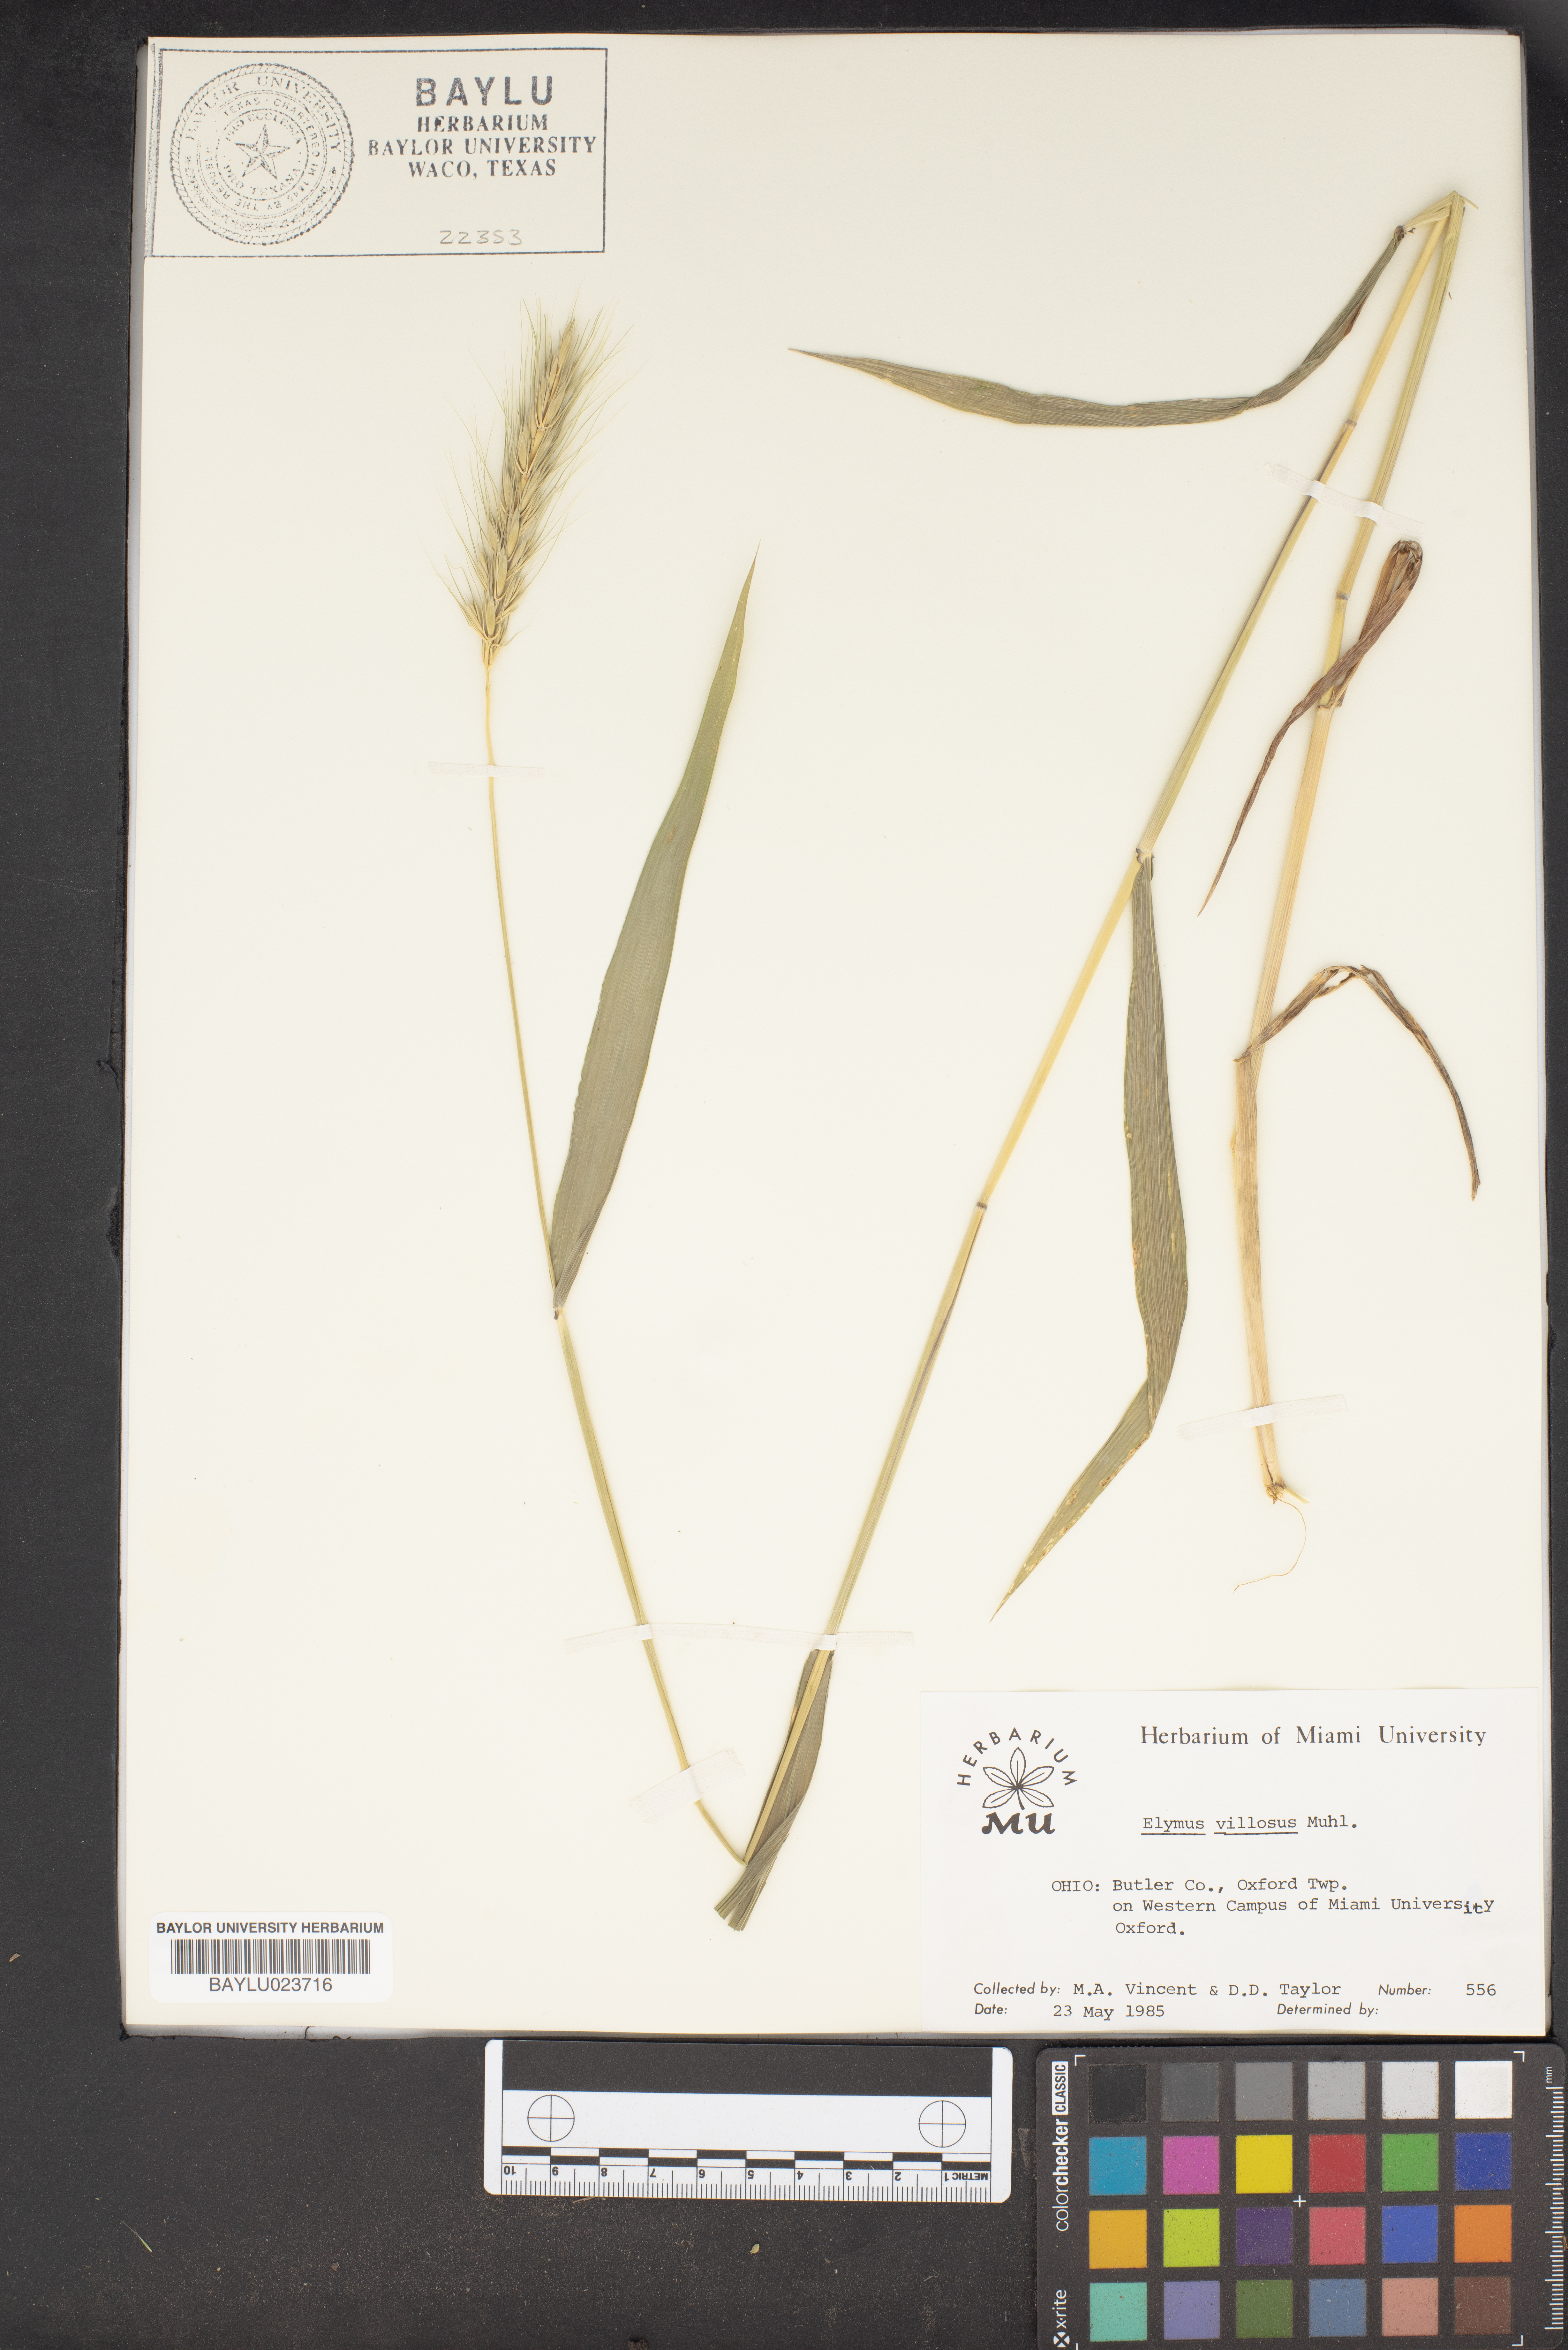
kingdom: Plantae
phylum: Tracheophyta
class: Liliopsida
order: Poales
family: Poaceae
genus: Elymus
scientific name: Elymus villosus
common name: Downy wild rye
